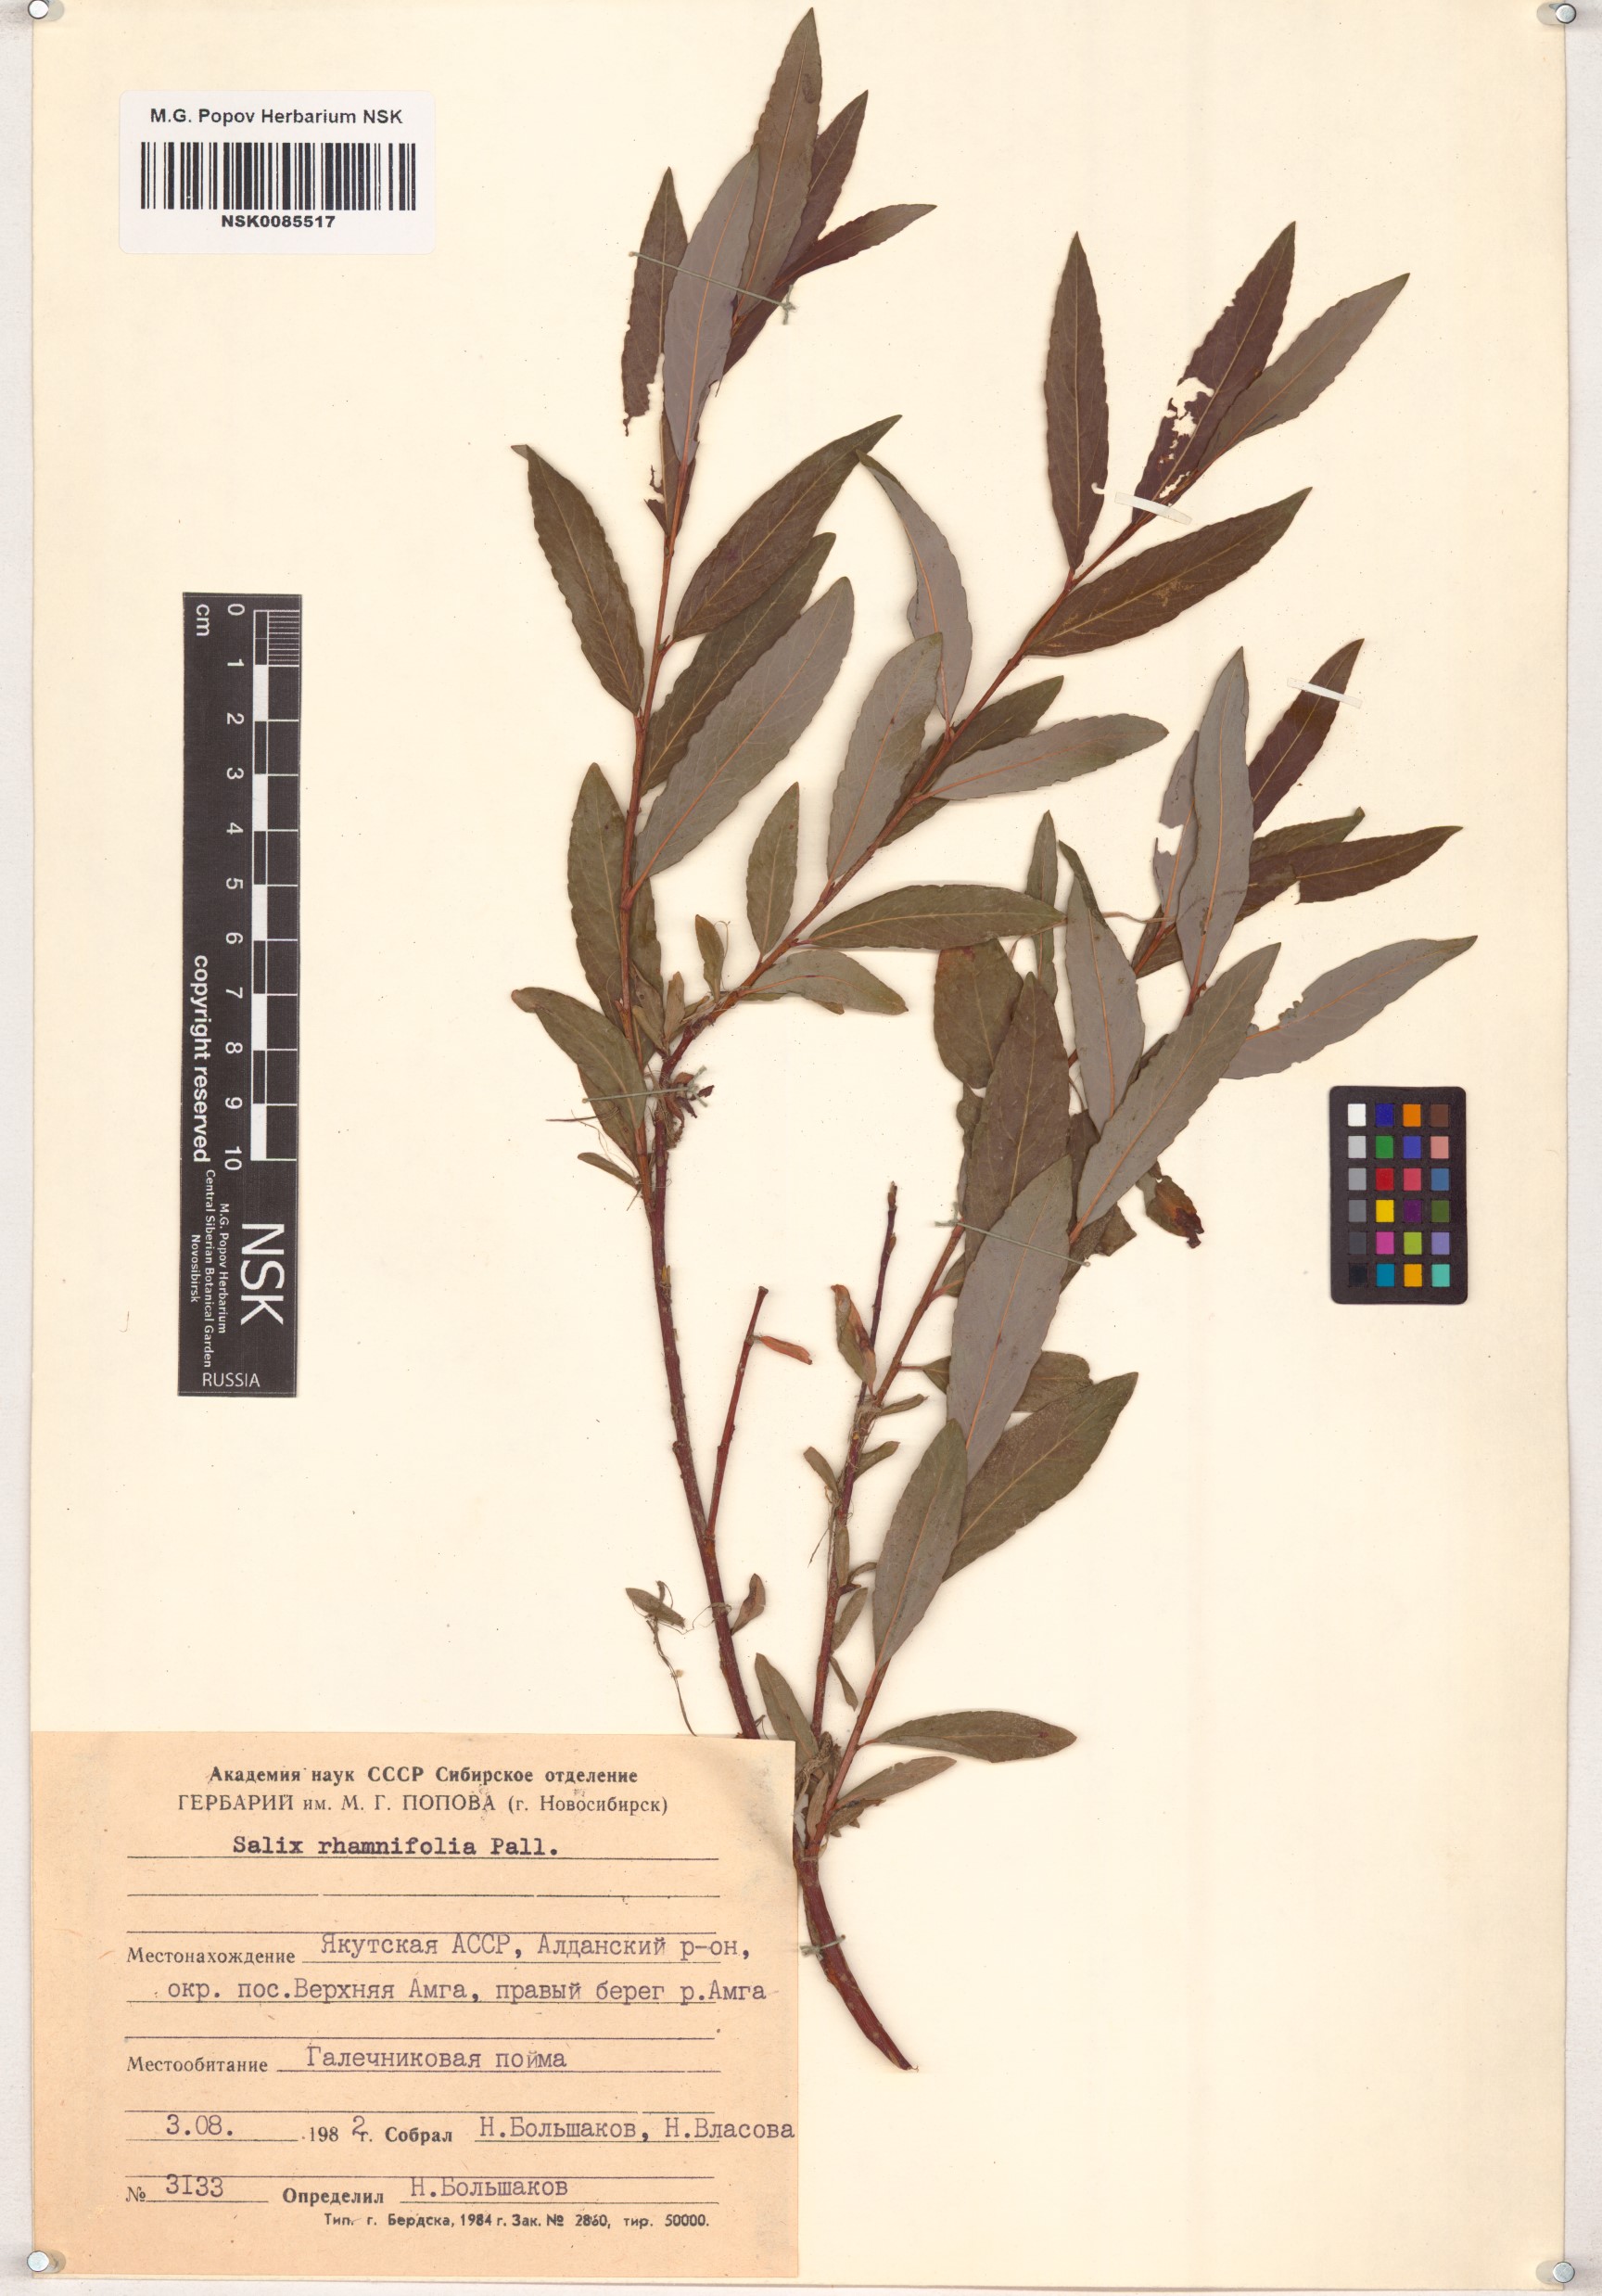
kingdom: Plantae
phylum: Tracheophyta
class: Magnoliopsida
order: Malpighiales
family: Salicaceae
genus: Salix
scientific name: Salix rhamnifolia
